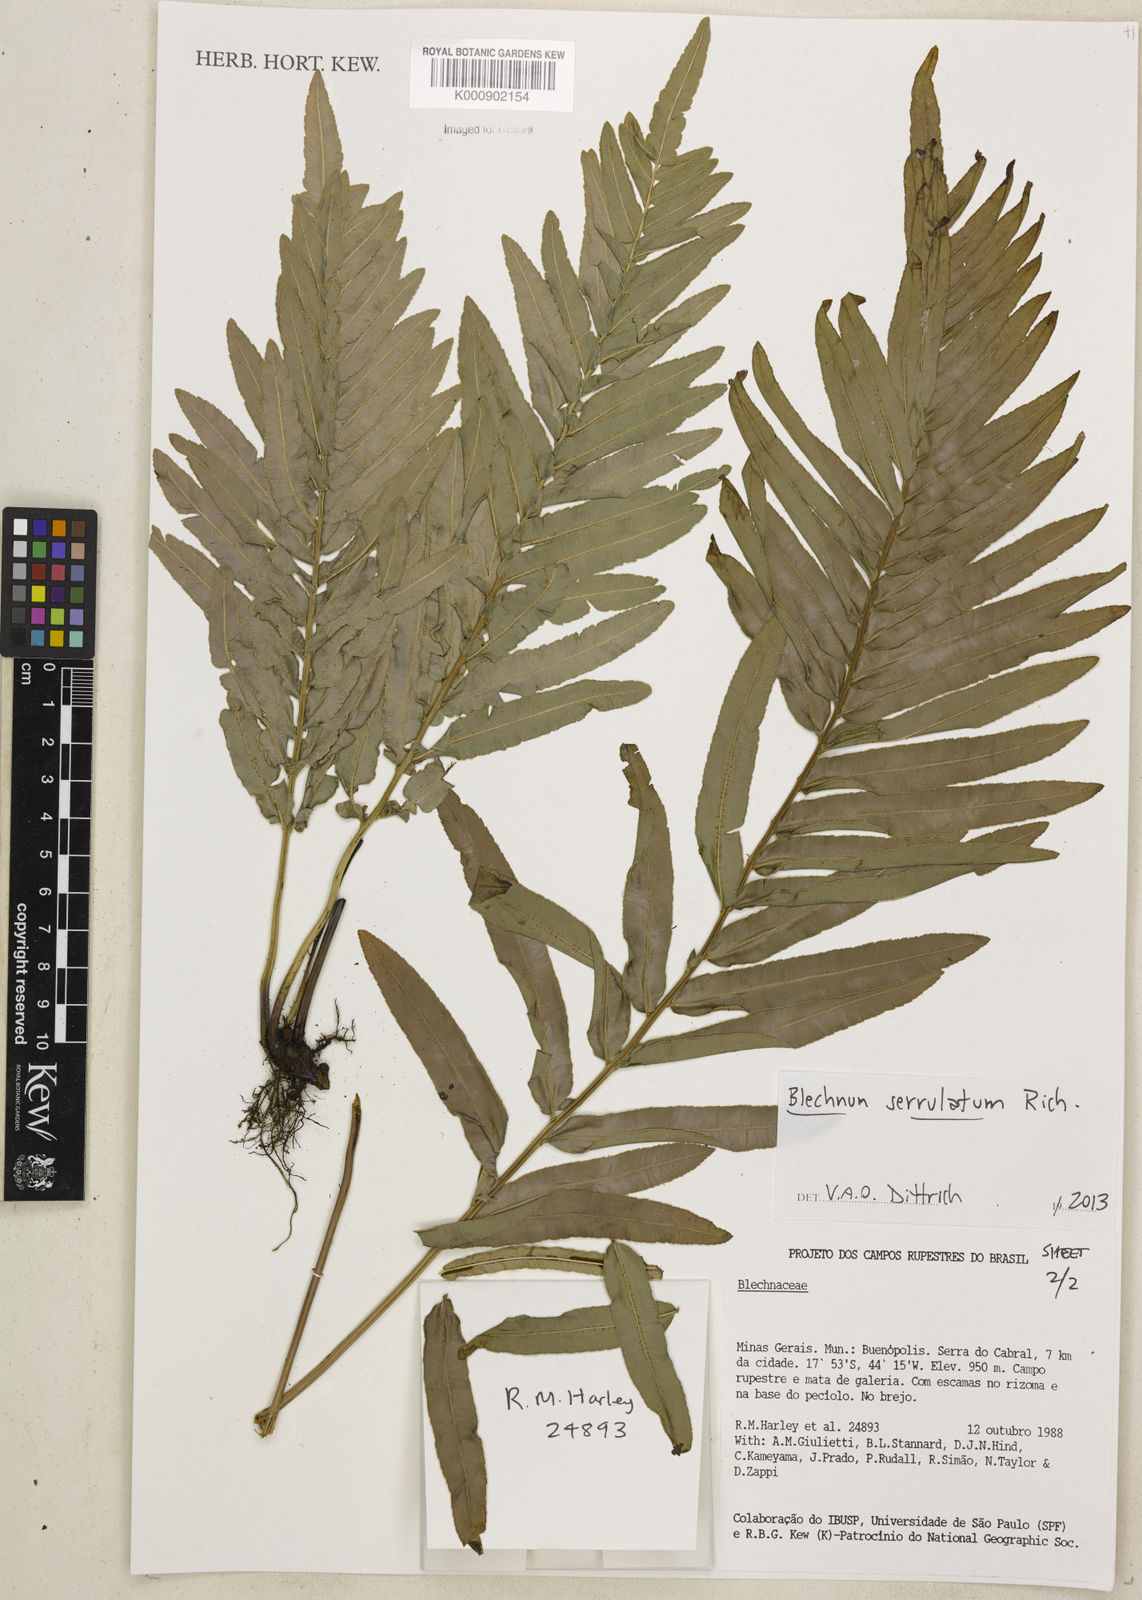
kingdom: Plantae
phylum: Tracheophyta
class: Polypodiopsida
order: Polypodiales
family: Blechnaceae
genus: Telmatoblechnum
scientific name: Telmatoblechnum serrulatum
